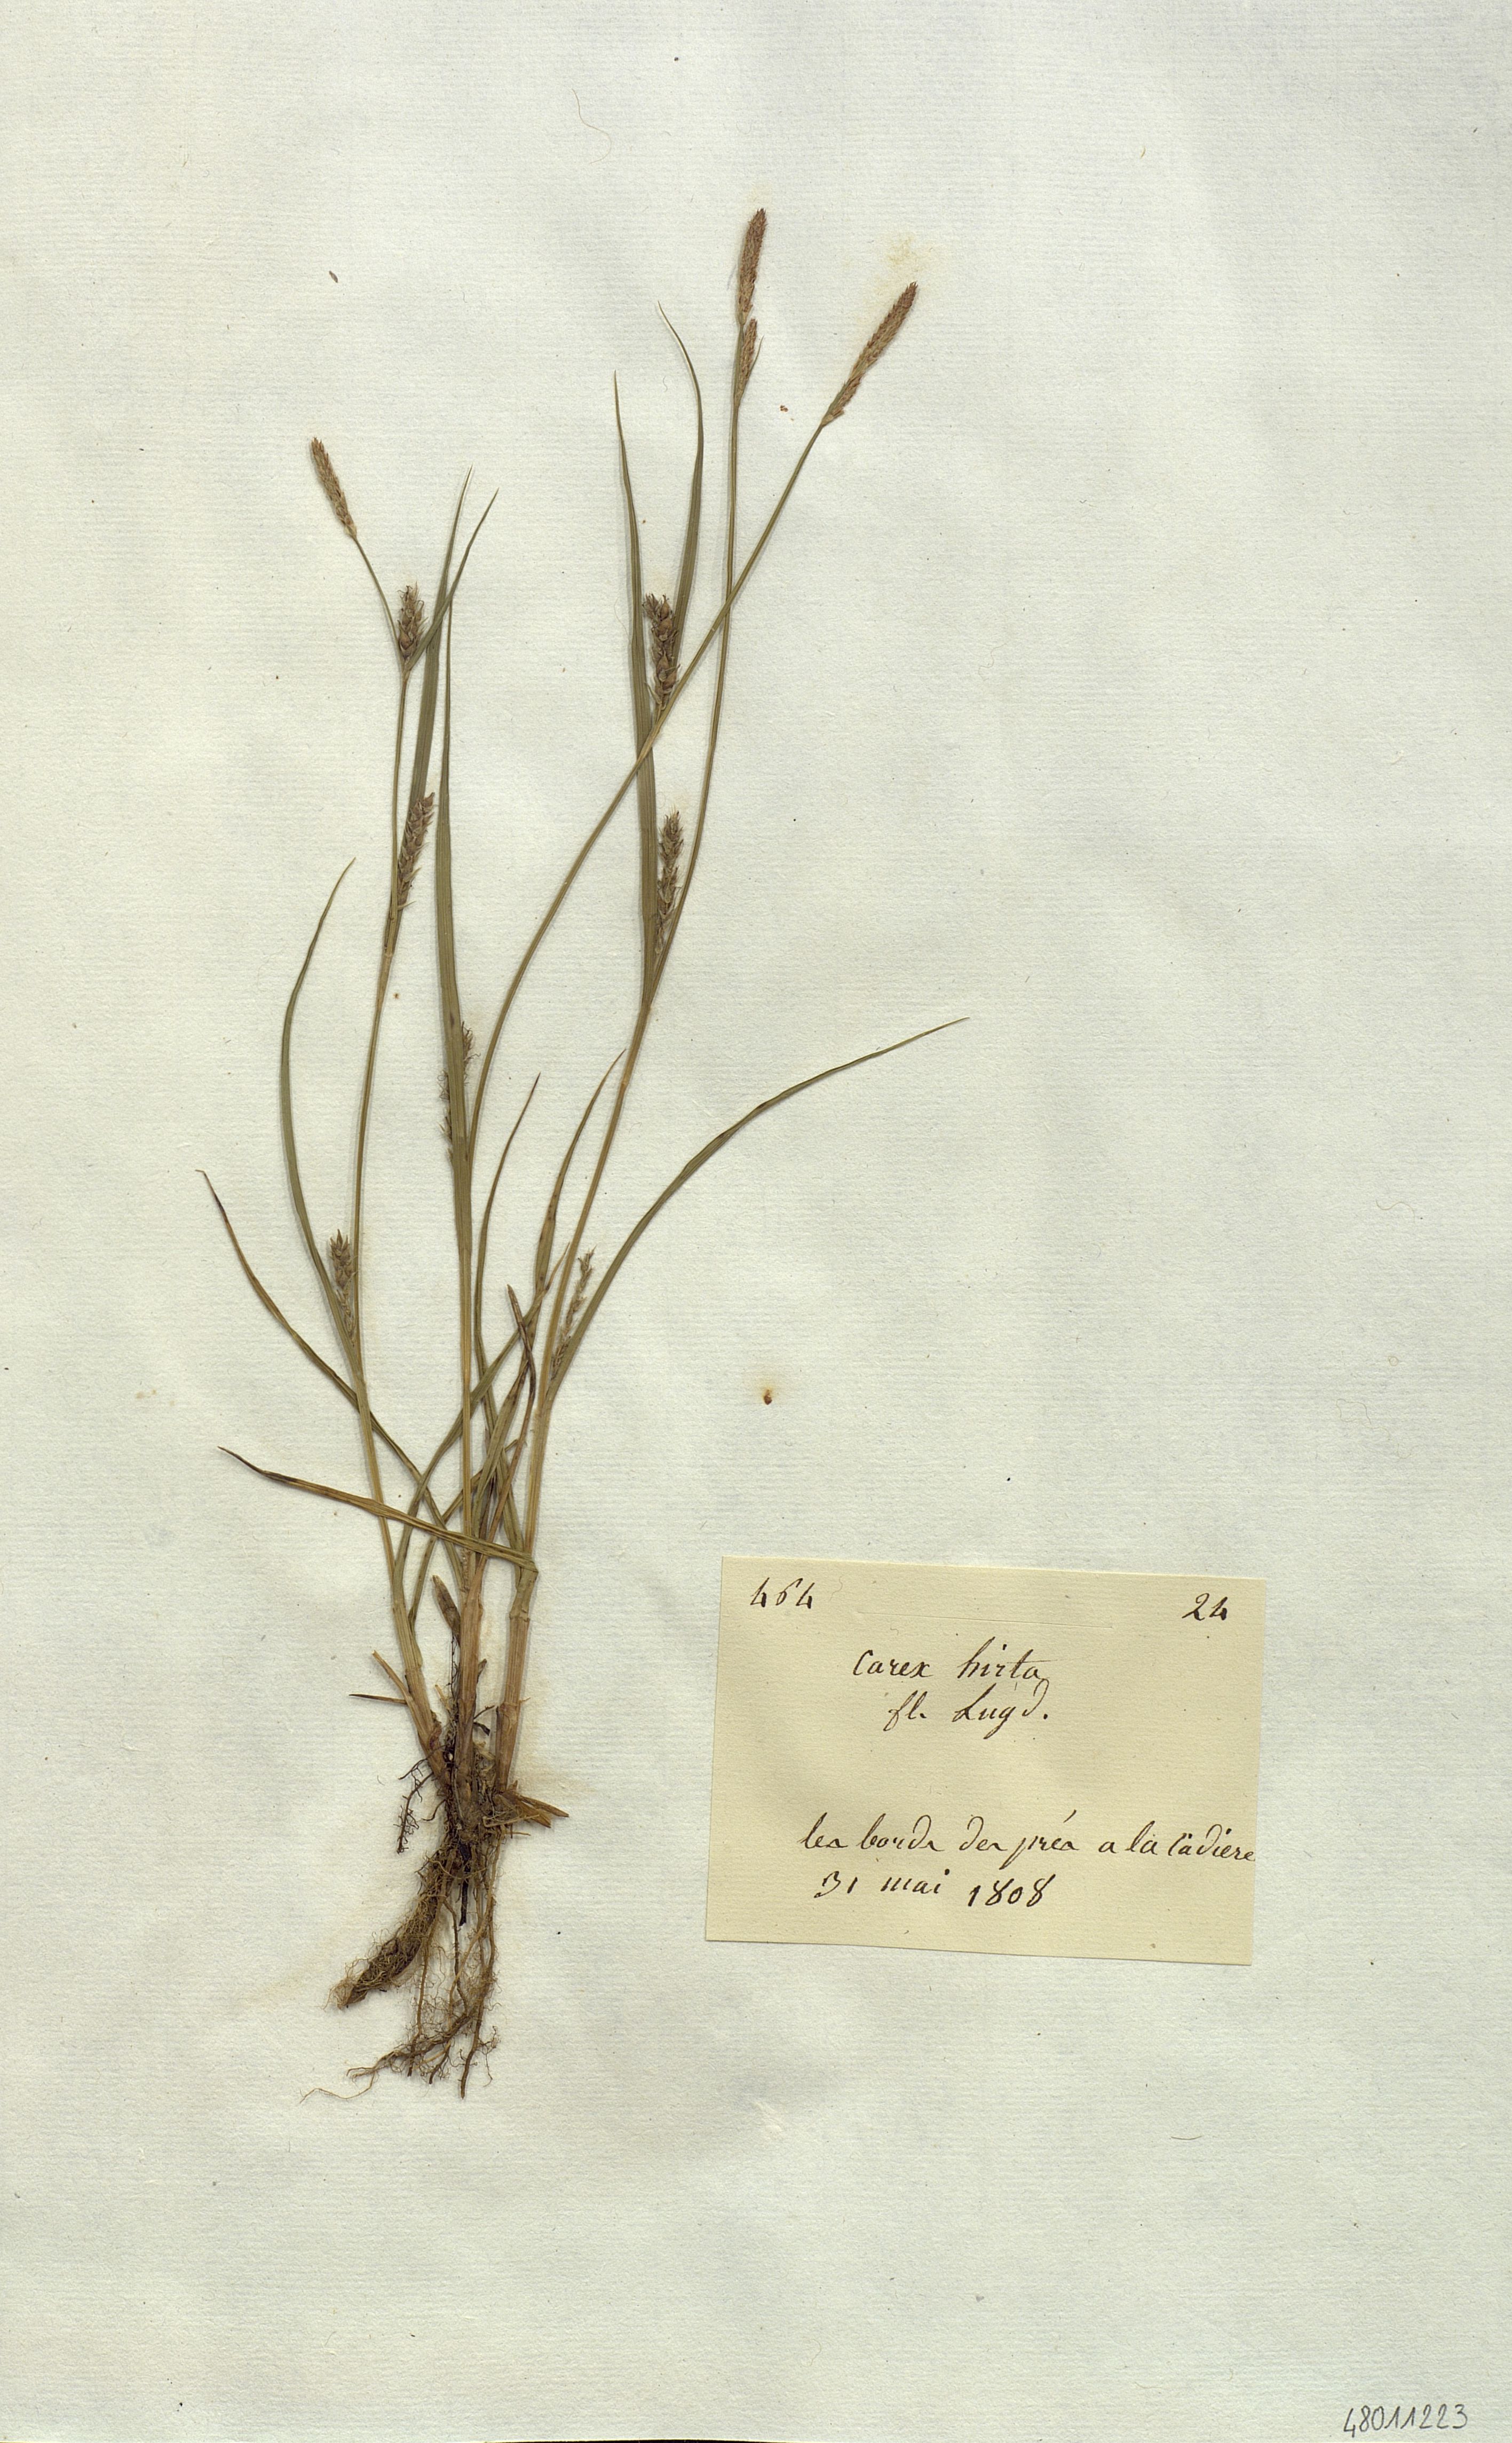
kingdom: Plantae
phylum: Tracheophyta
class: Liliopsida
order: Poales
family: Cyperaceae
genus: Carex
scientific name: Carex hirta
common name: Hairy sedge
